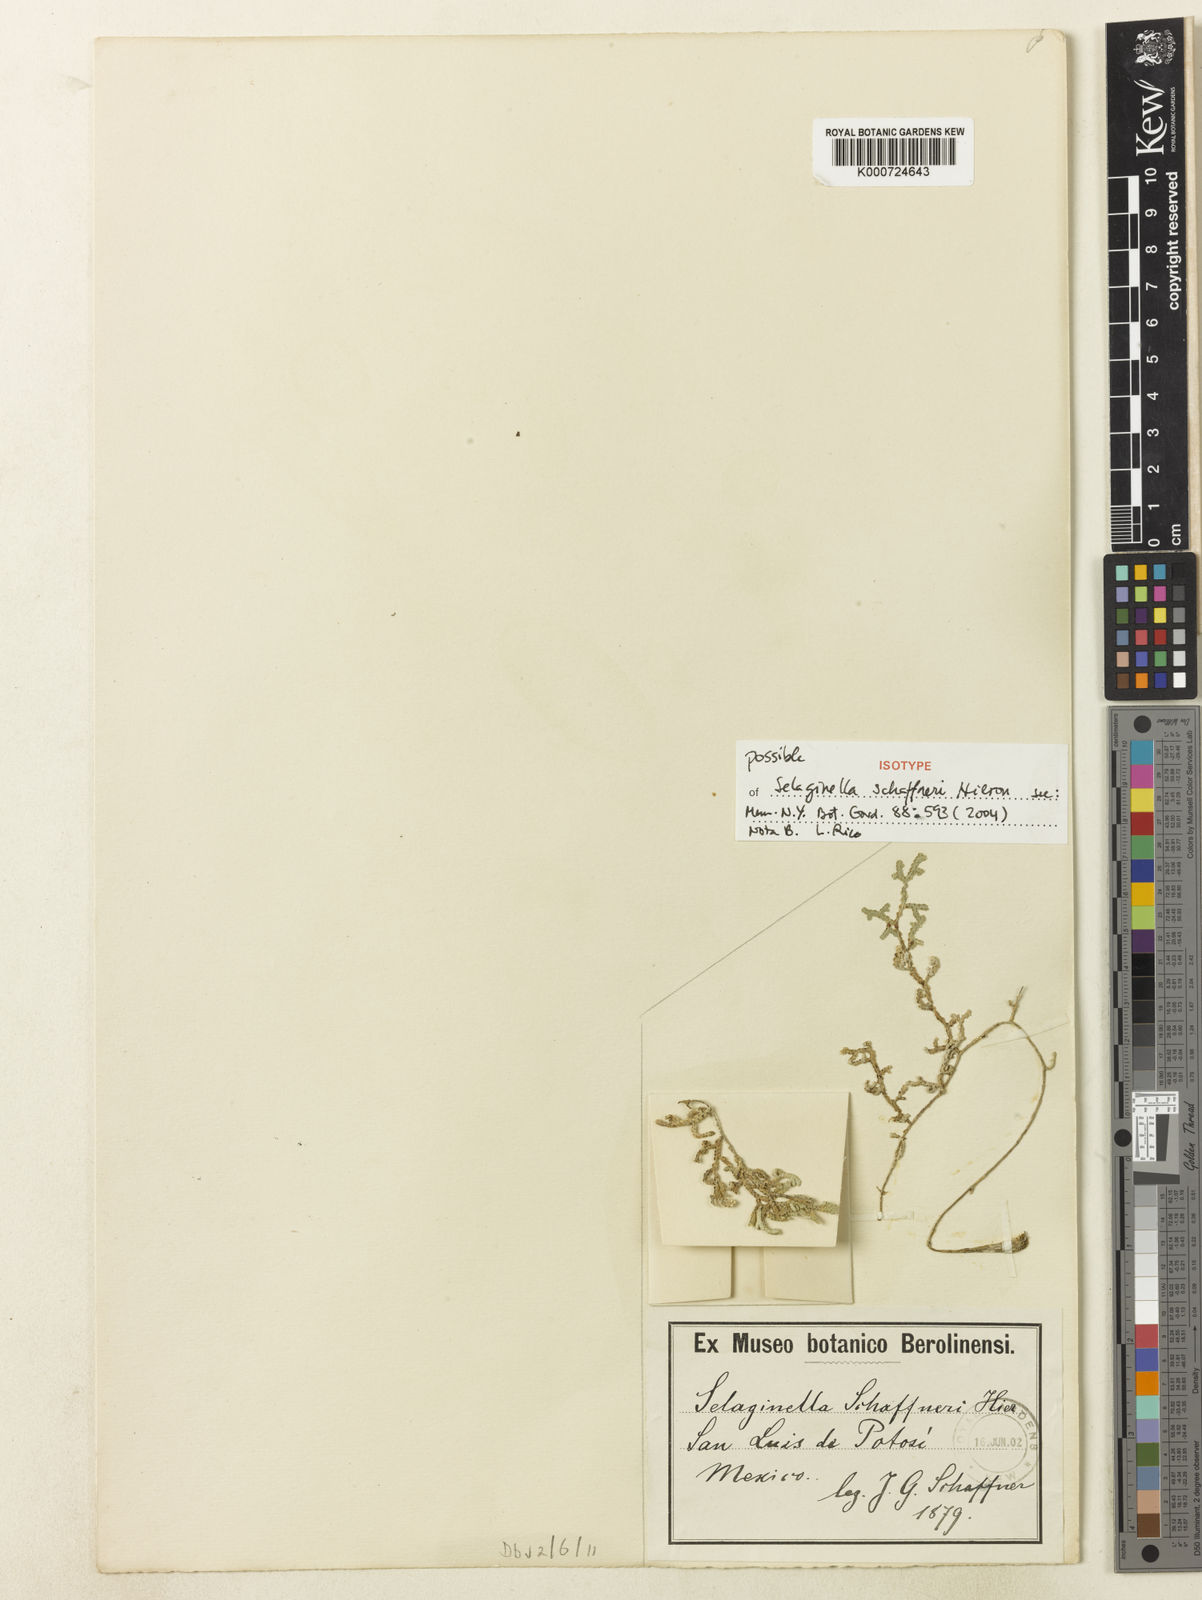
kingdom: Plantae
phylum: Tracheophyta
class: Lycopodiopsida
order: Selaginellales
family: Selaginellaceae
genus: Selaginella
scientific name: Selaginella schaffneri
